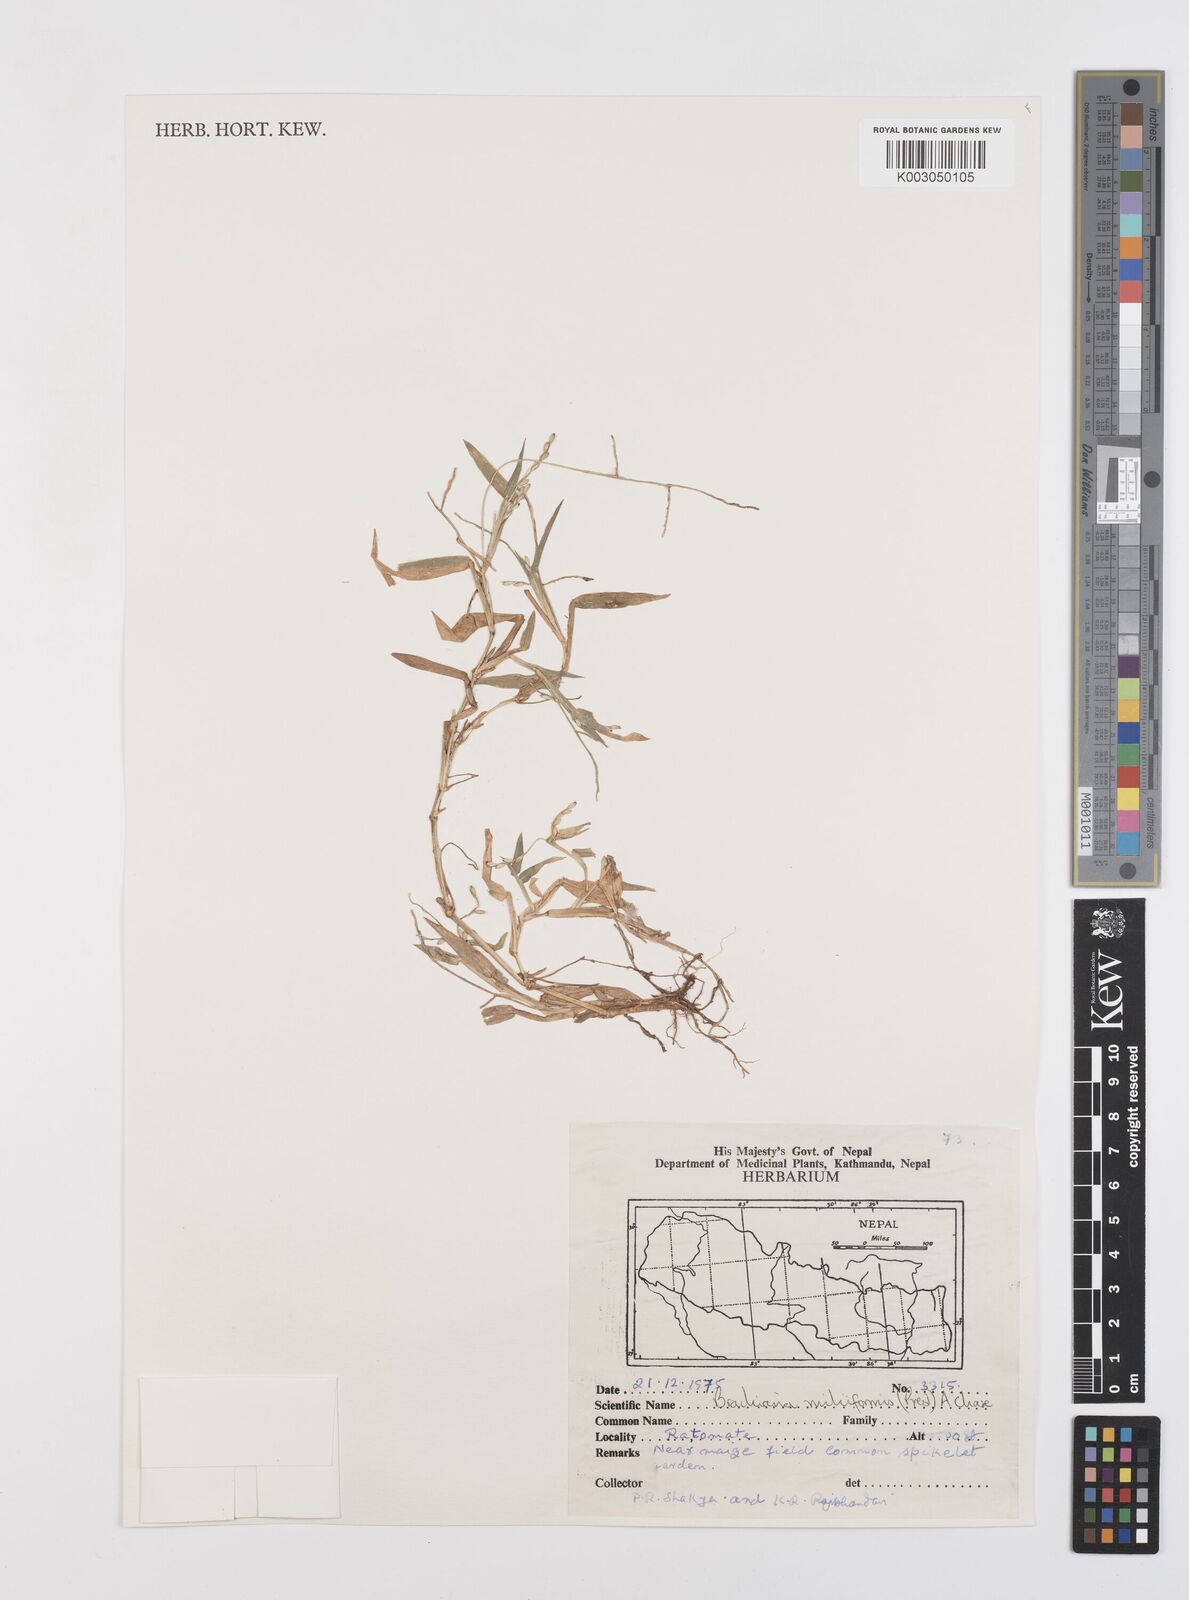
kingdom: Plantae
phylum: Tracheophyta
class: Liliopsida
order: Poales
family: Poaceae
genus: Urochloa
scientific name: Urochloa subquadripara
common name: Armgrass millet
